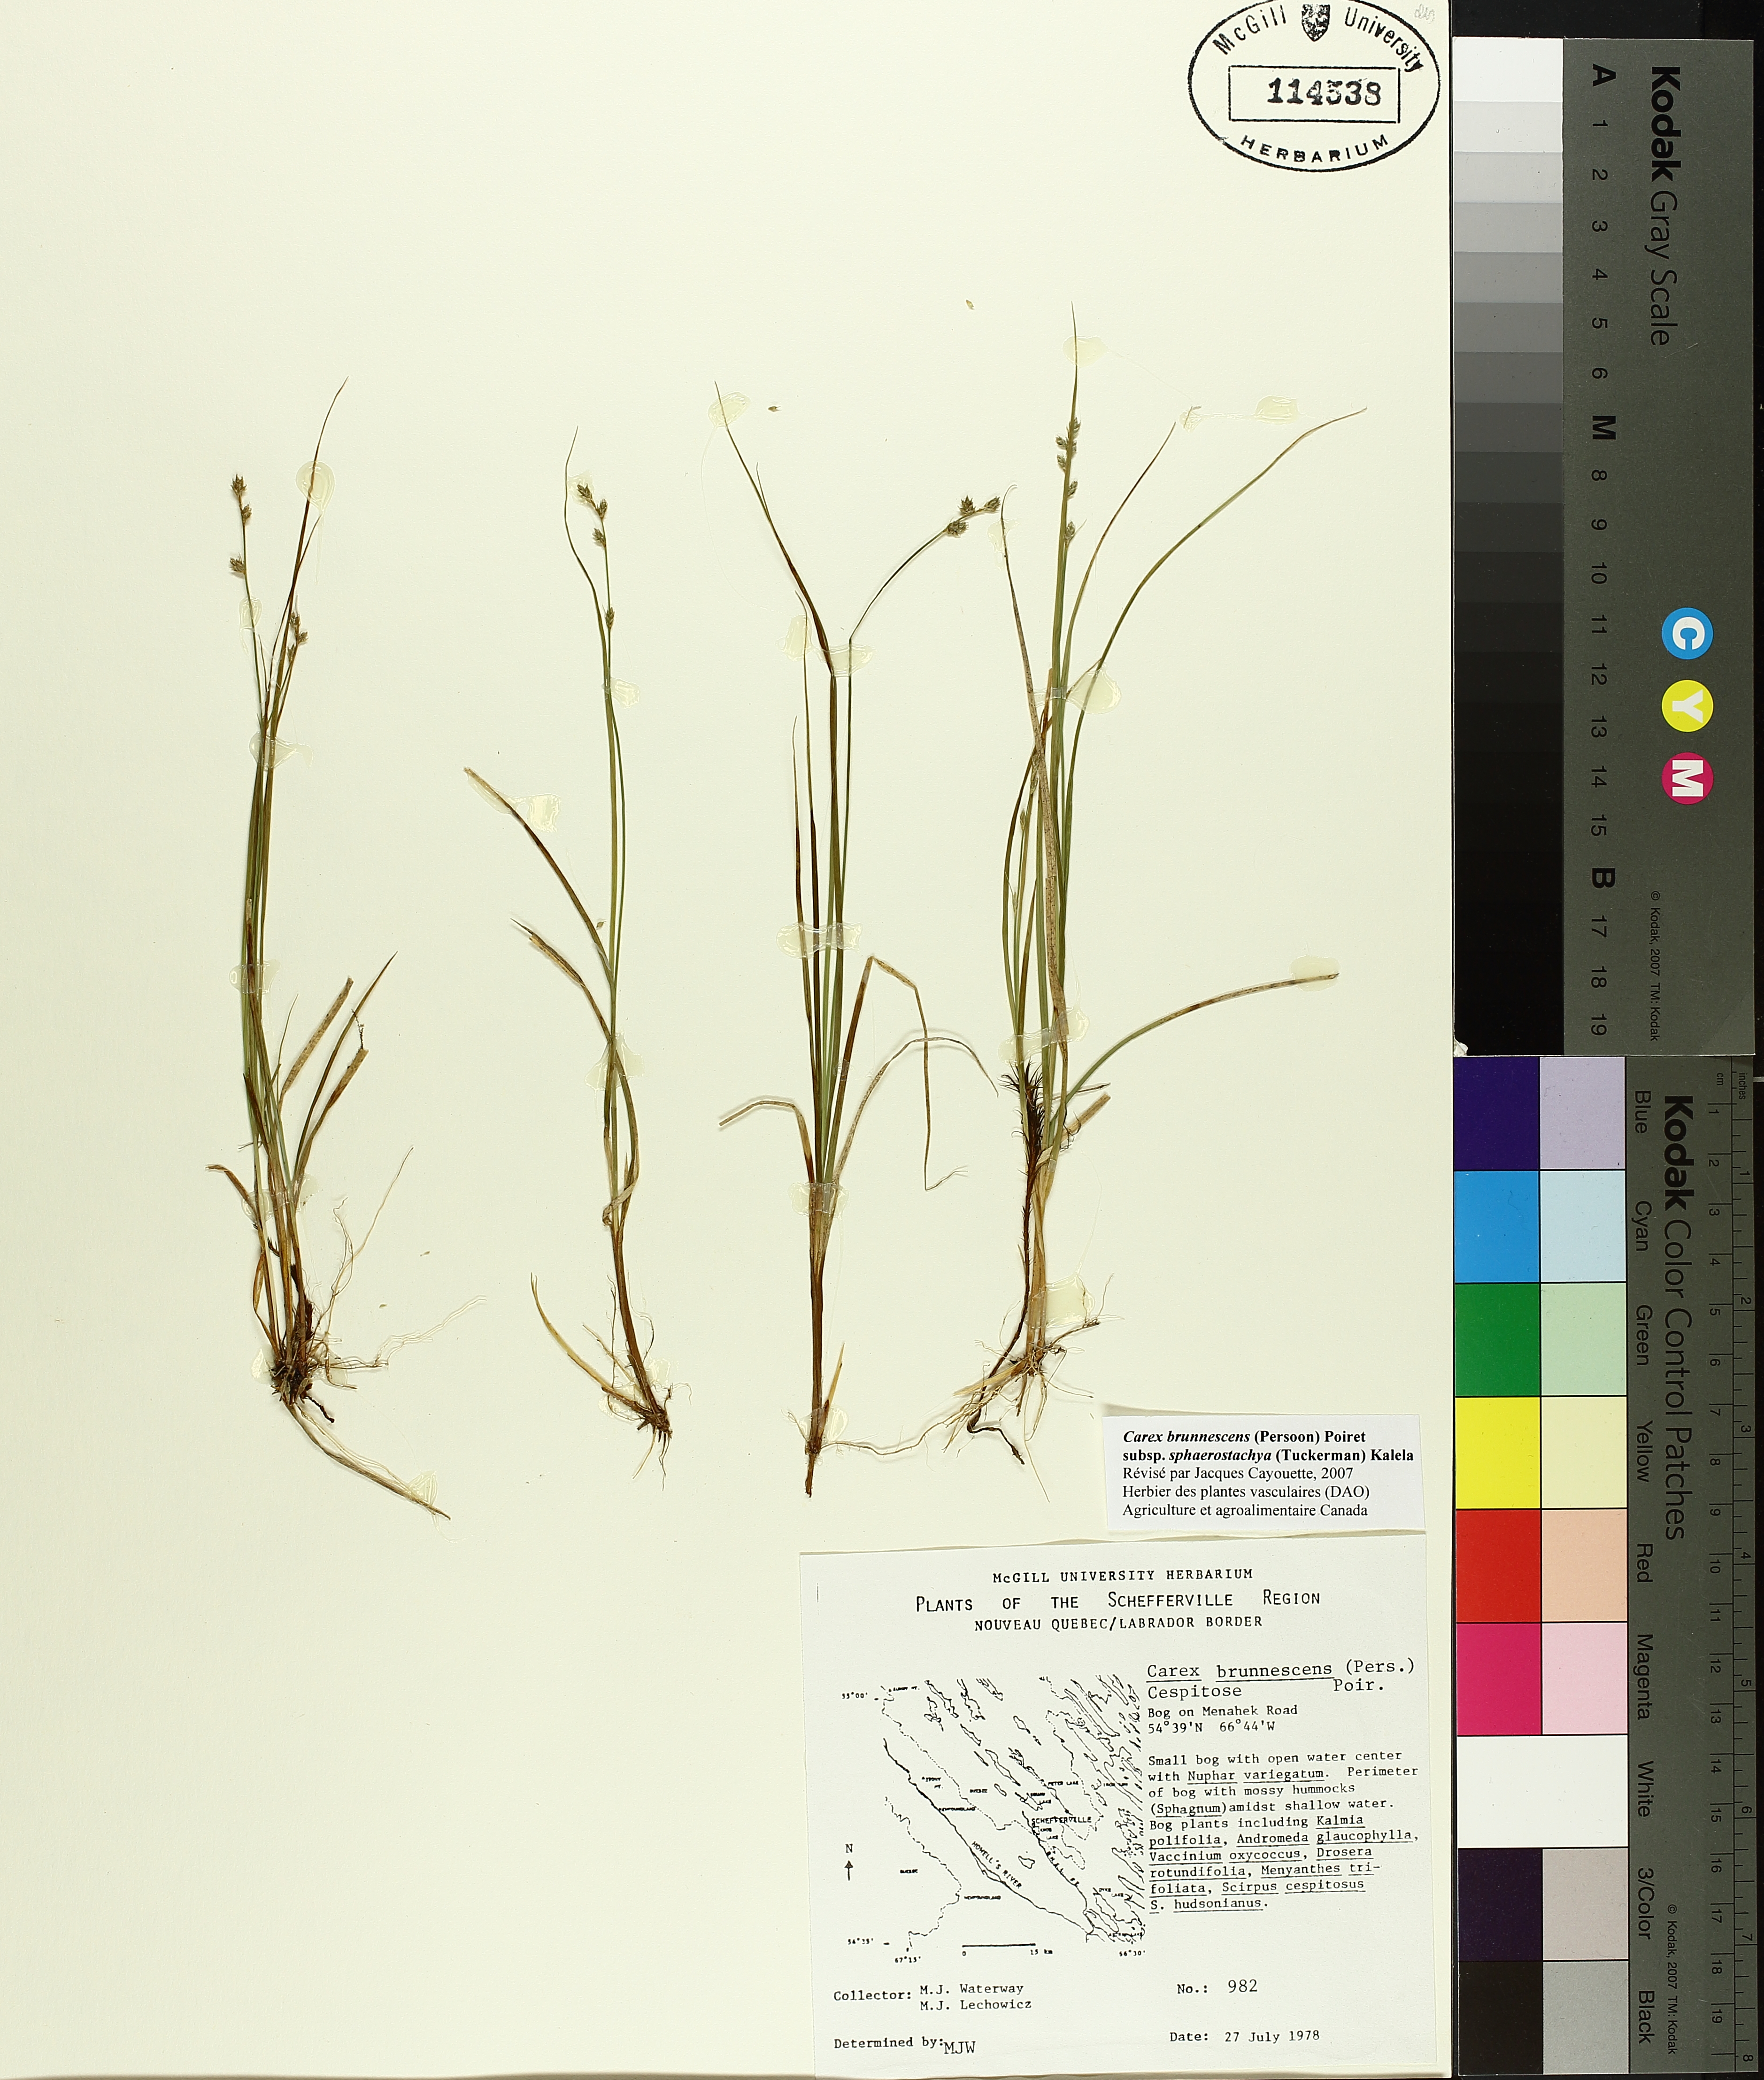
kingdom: Plantae
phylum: Tracheophyta
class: Liliopsida
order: Poales
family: Cyperaceae
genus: Carex
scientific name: Carex brunnescens
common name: Brown sedge
